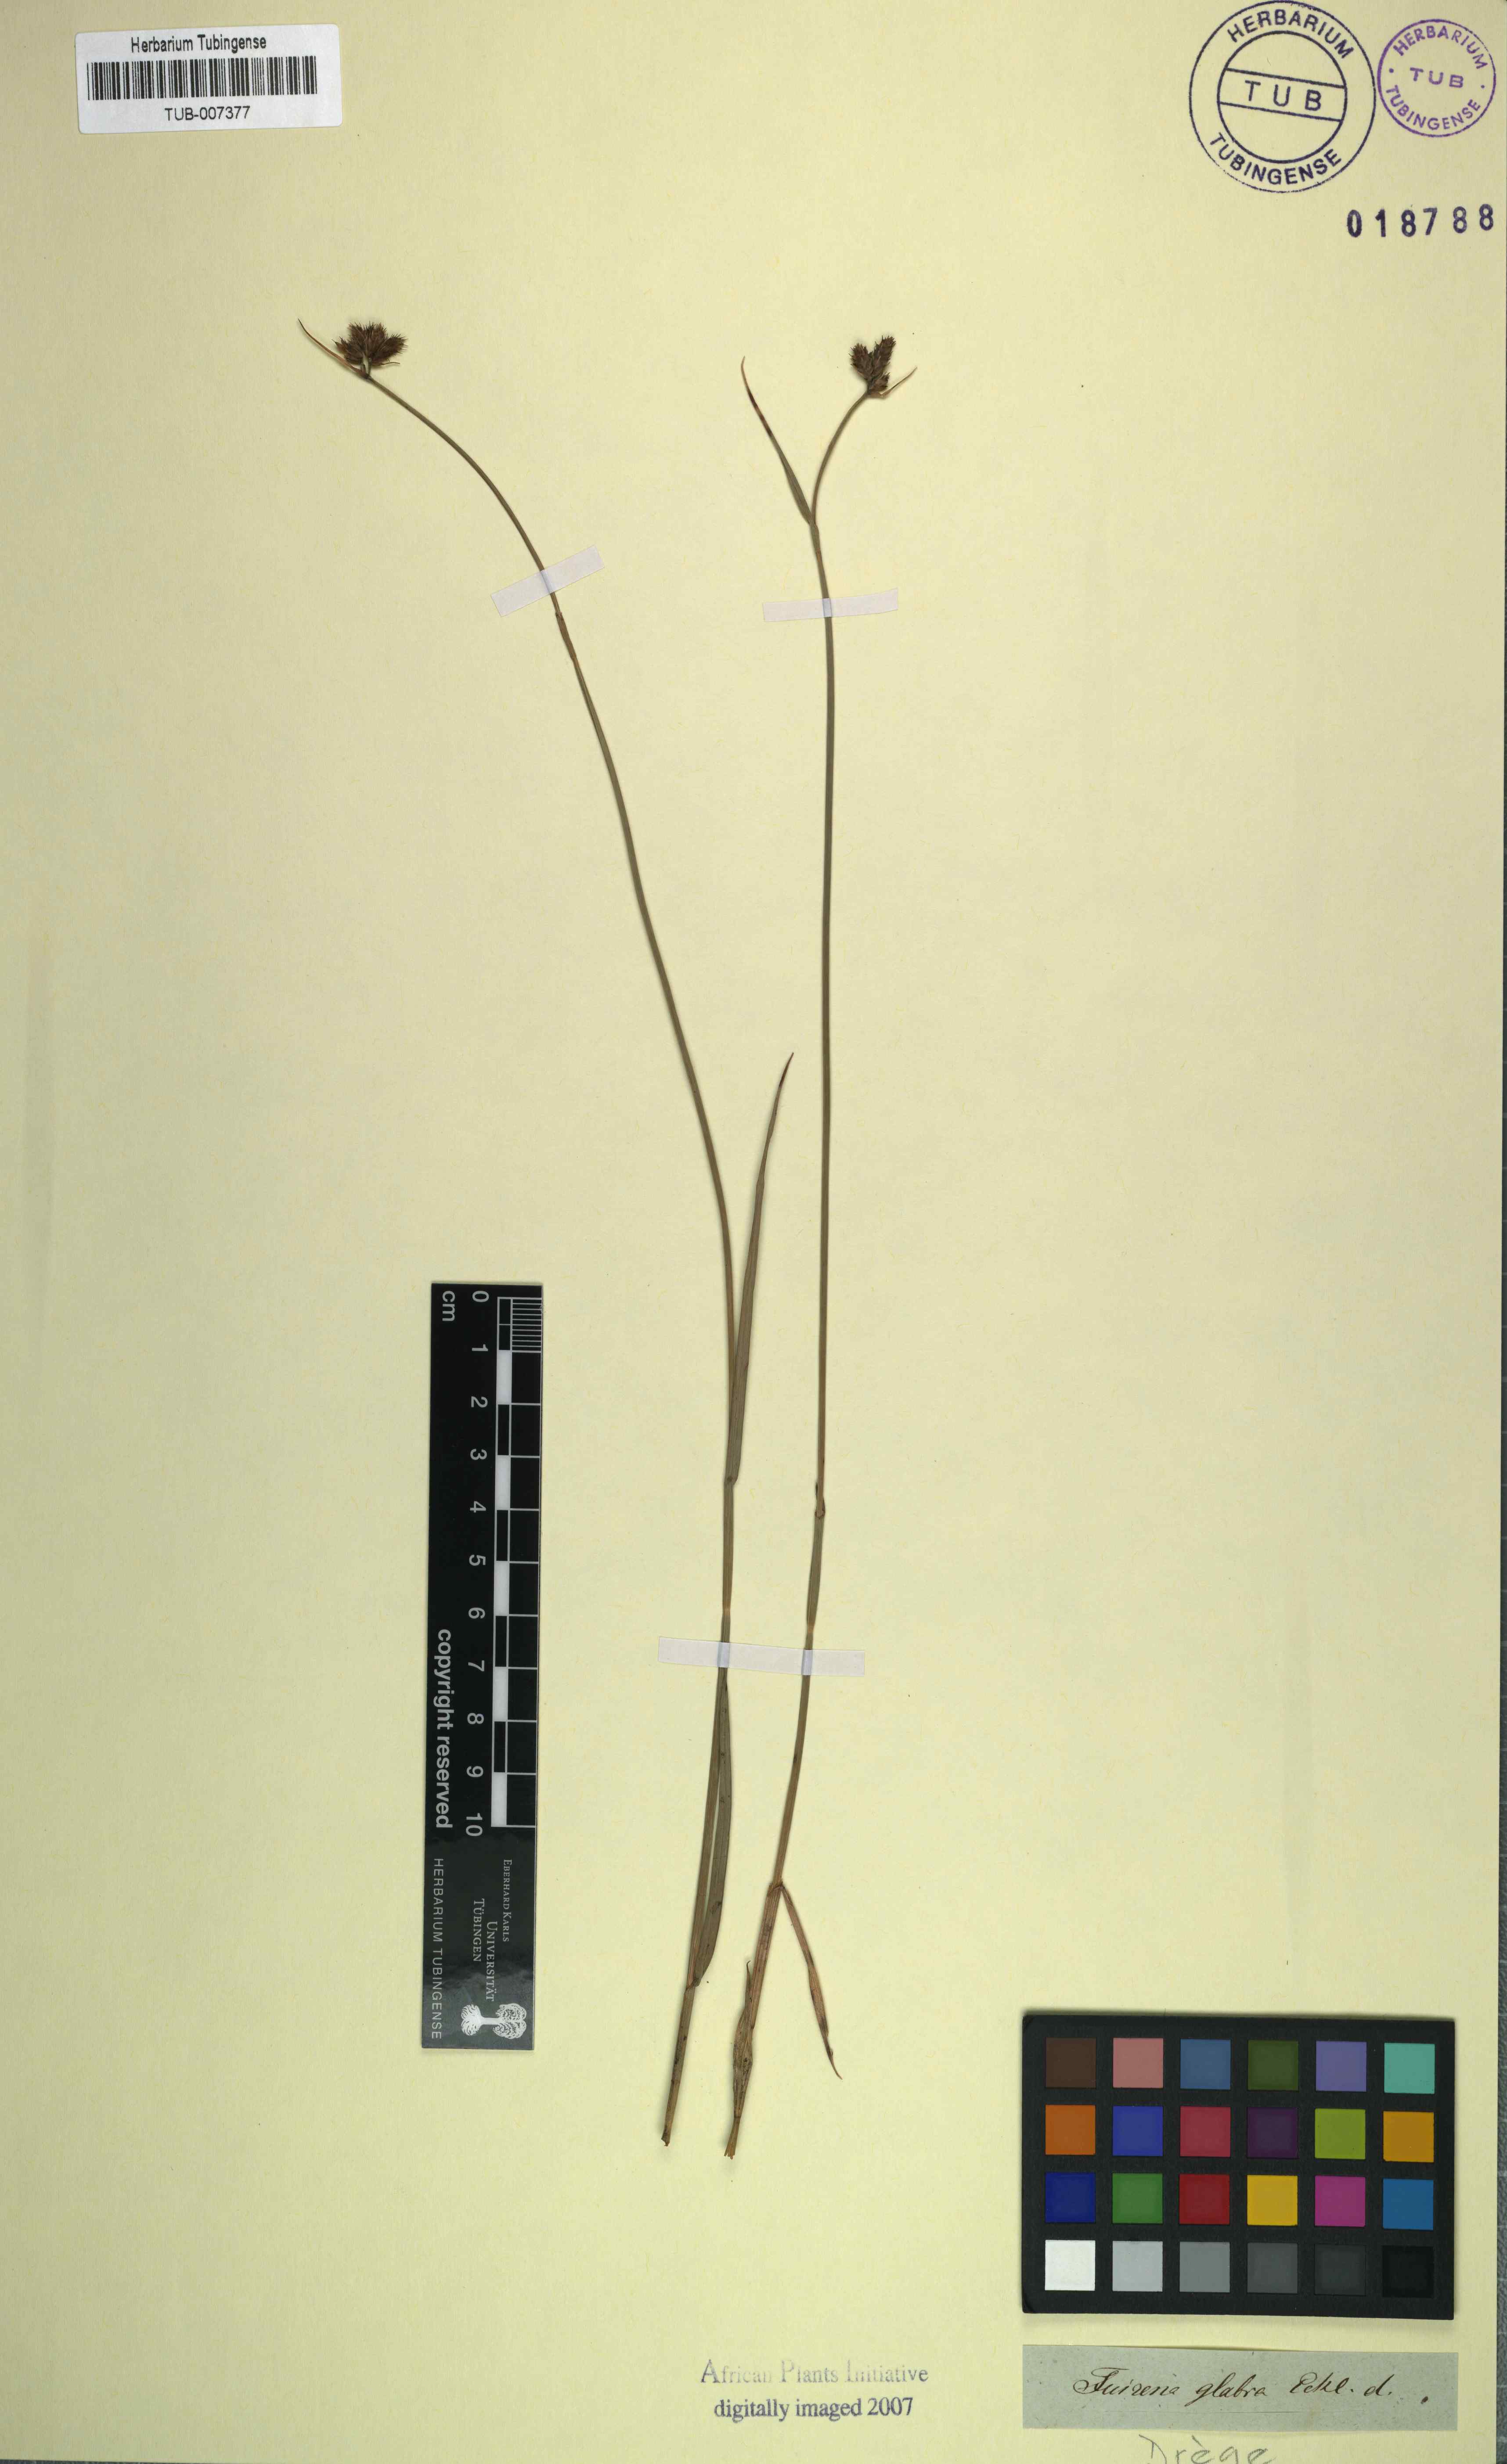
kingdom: Plantae
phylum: Tracheophyta
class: Liliopsida
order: Poales
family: Cyperaceae
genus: Fuirena
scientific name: Fuirena hirsuta
